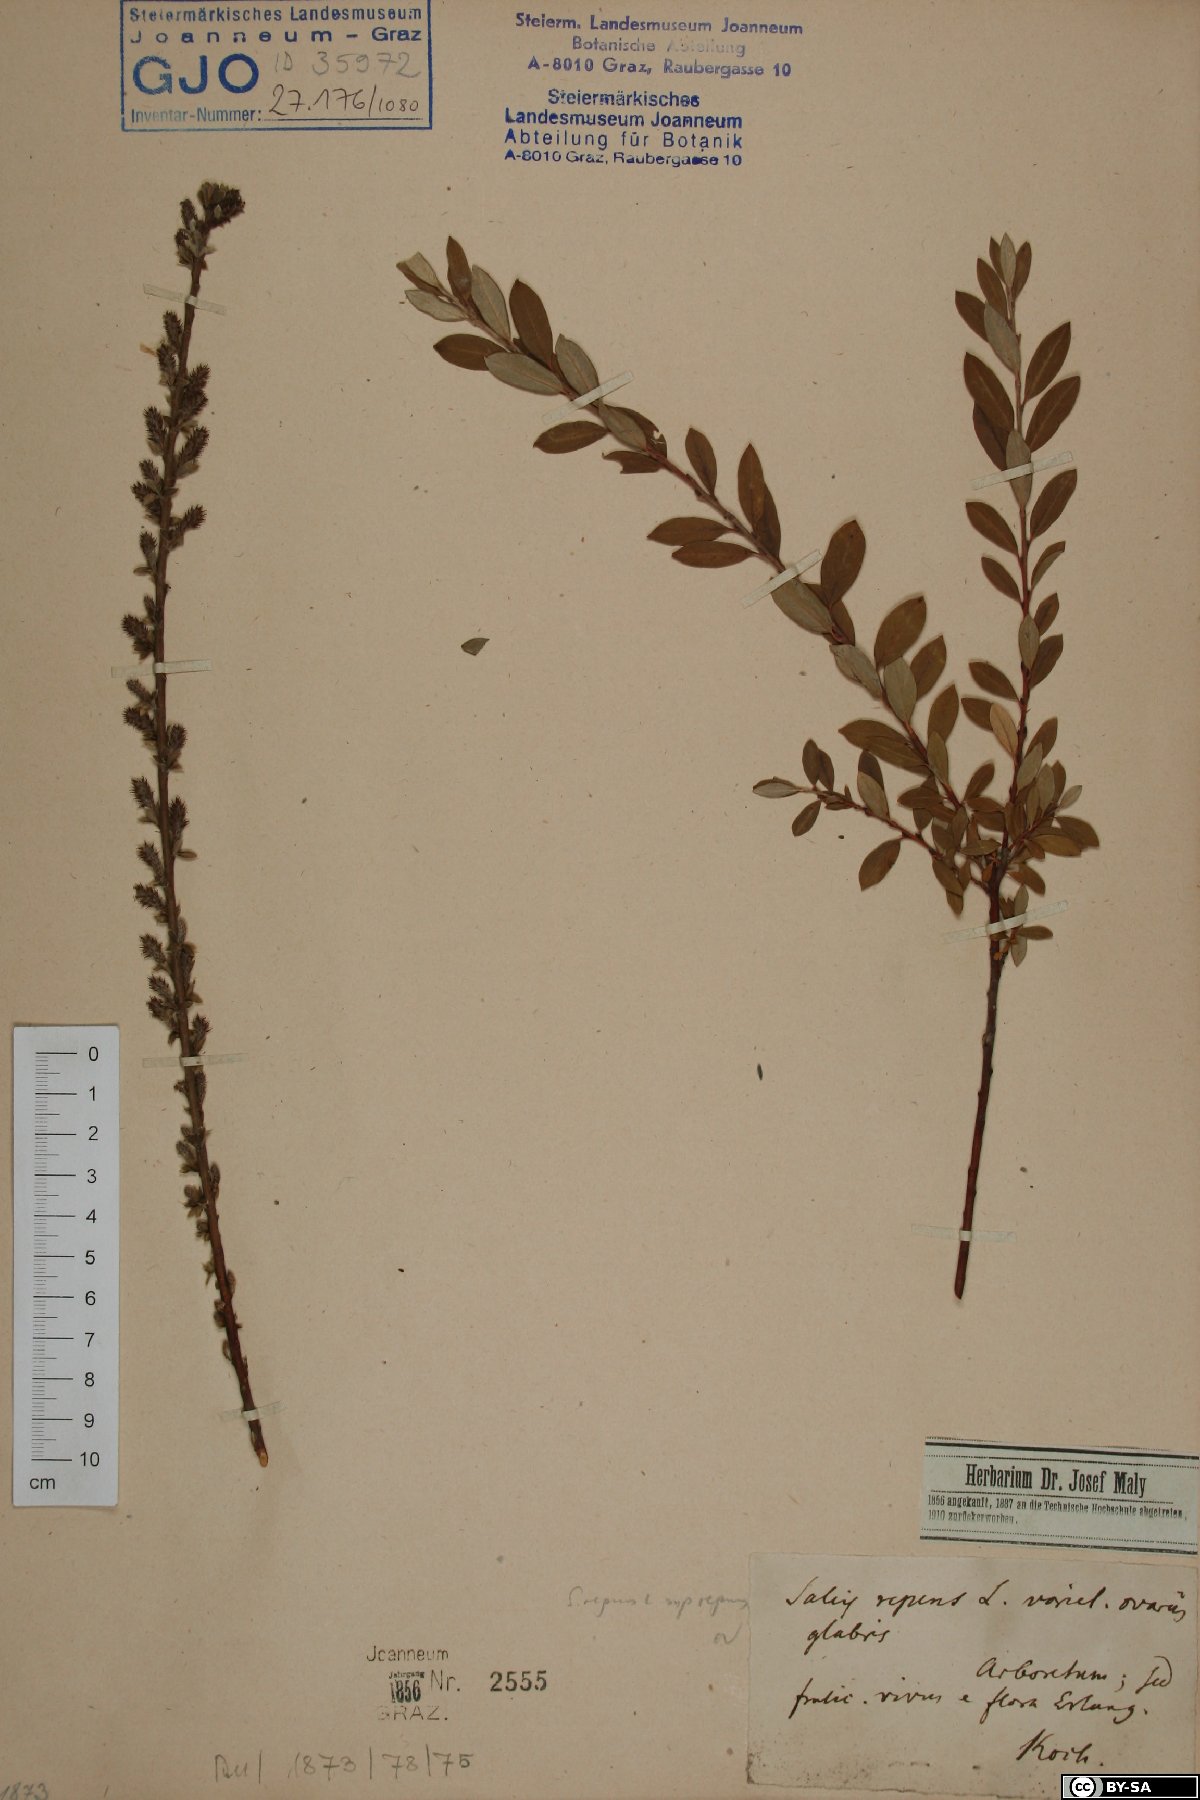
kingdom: Plantae
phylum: Tracheophyta
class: Magnoliopsida
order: Malpighiales
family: Salicaceae
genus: Salix
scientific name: Salix repens
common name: Creeping willow
